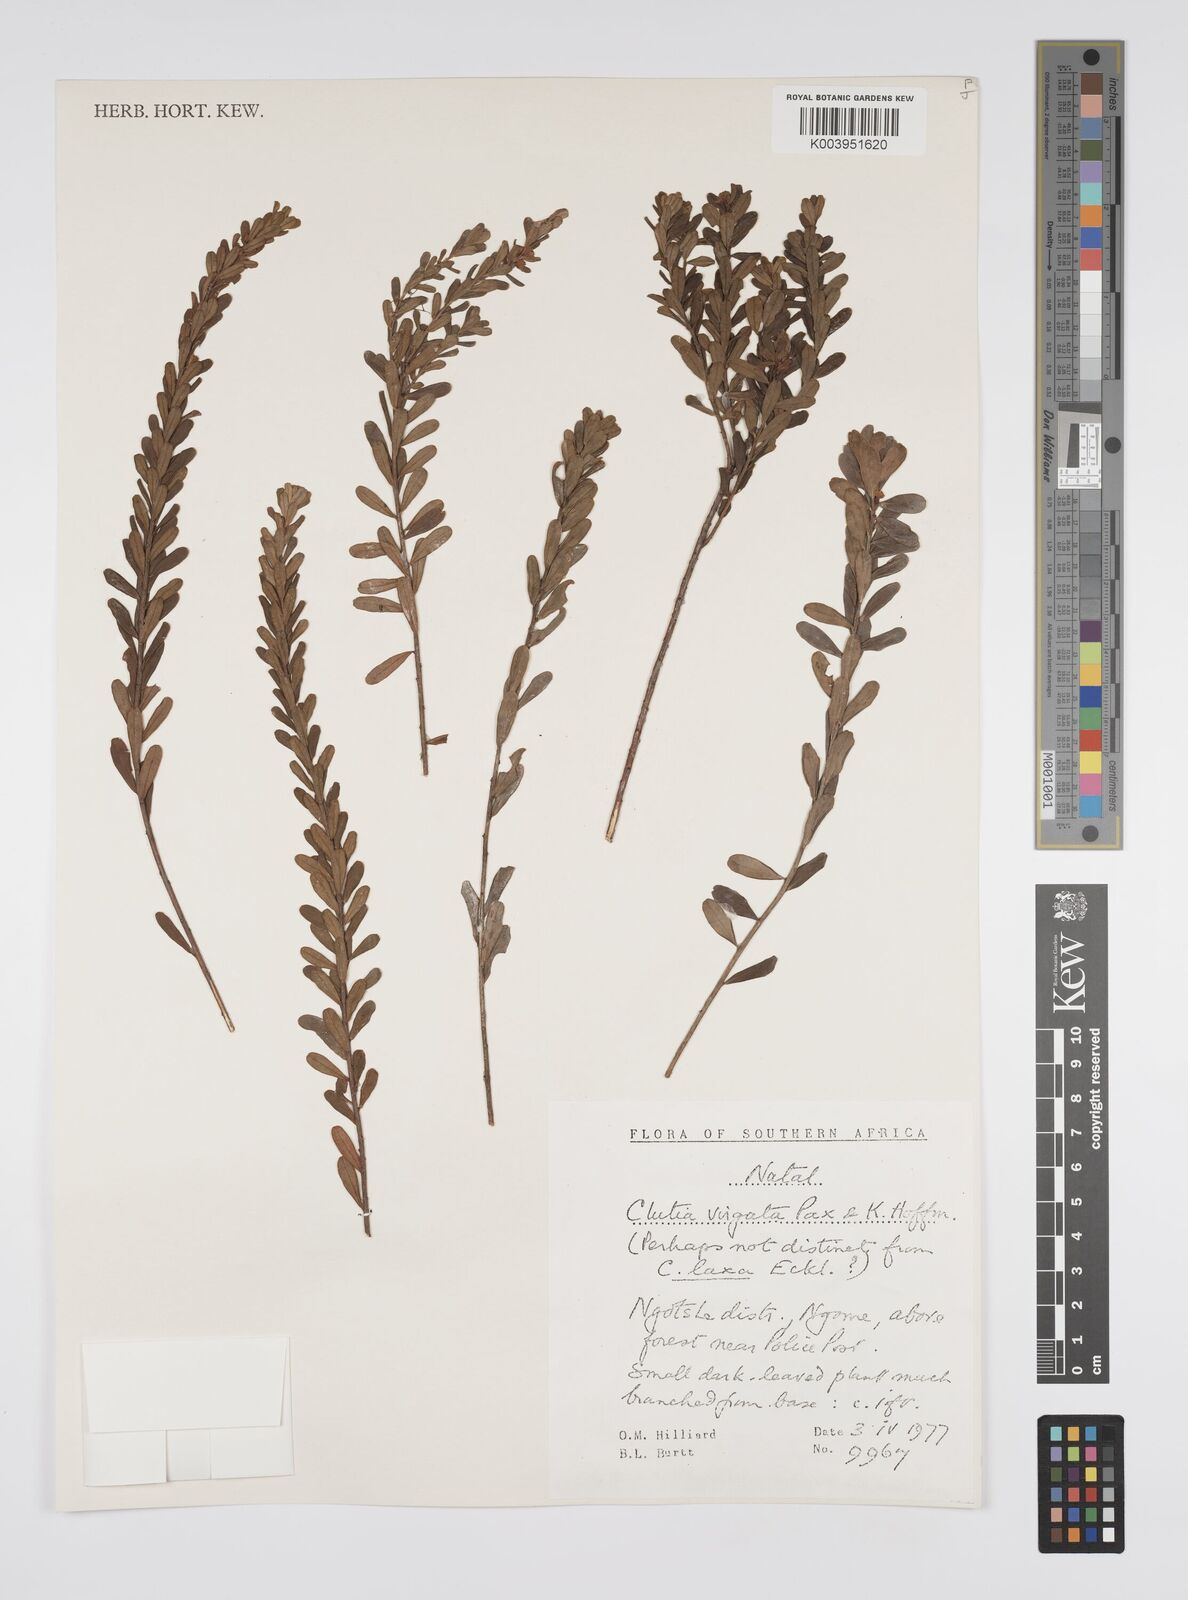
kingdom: Plantae
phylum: Tracheophyta
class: Magnoliopsida
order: Malpighiales
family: Peraceae
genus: Clutia
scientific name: Clutia virgata
